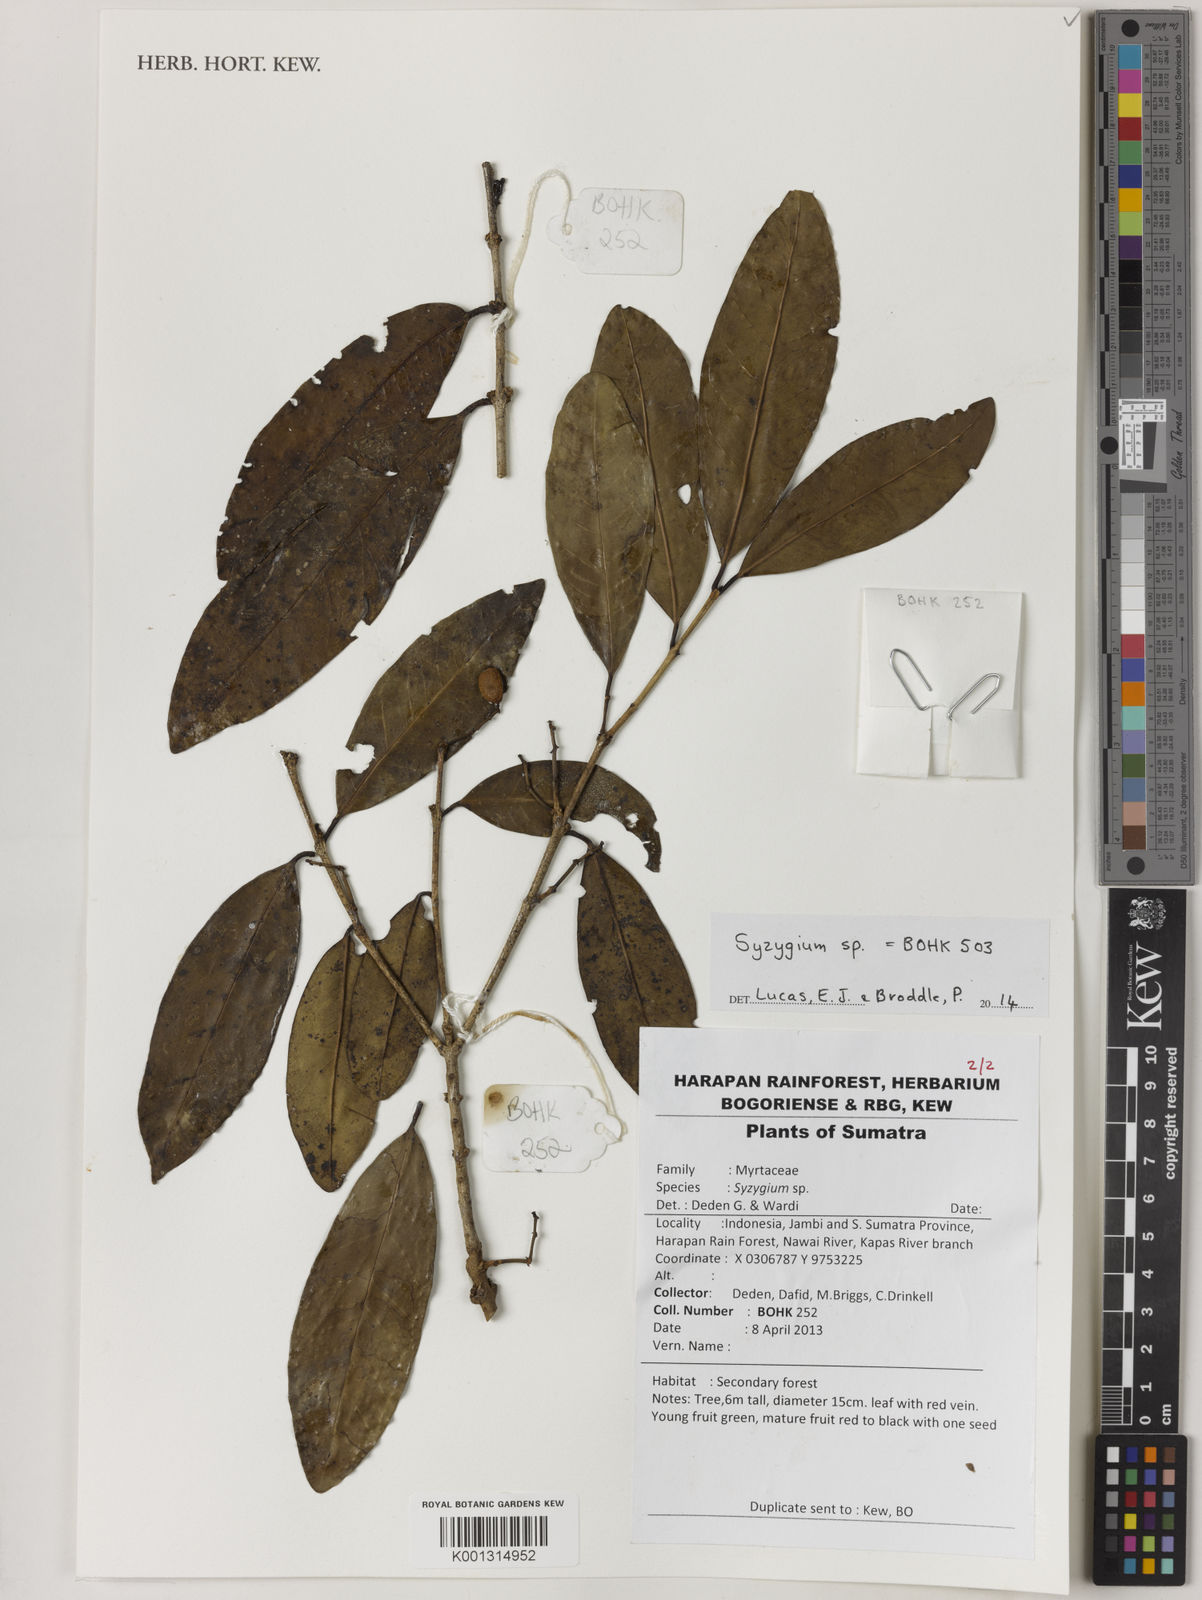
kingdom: Plantae
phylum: Tracheophyta
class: Magnoliopsida
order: Myrtales
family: Myrtaceae
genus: Syzygium
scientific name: Syzygium
